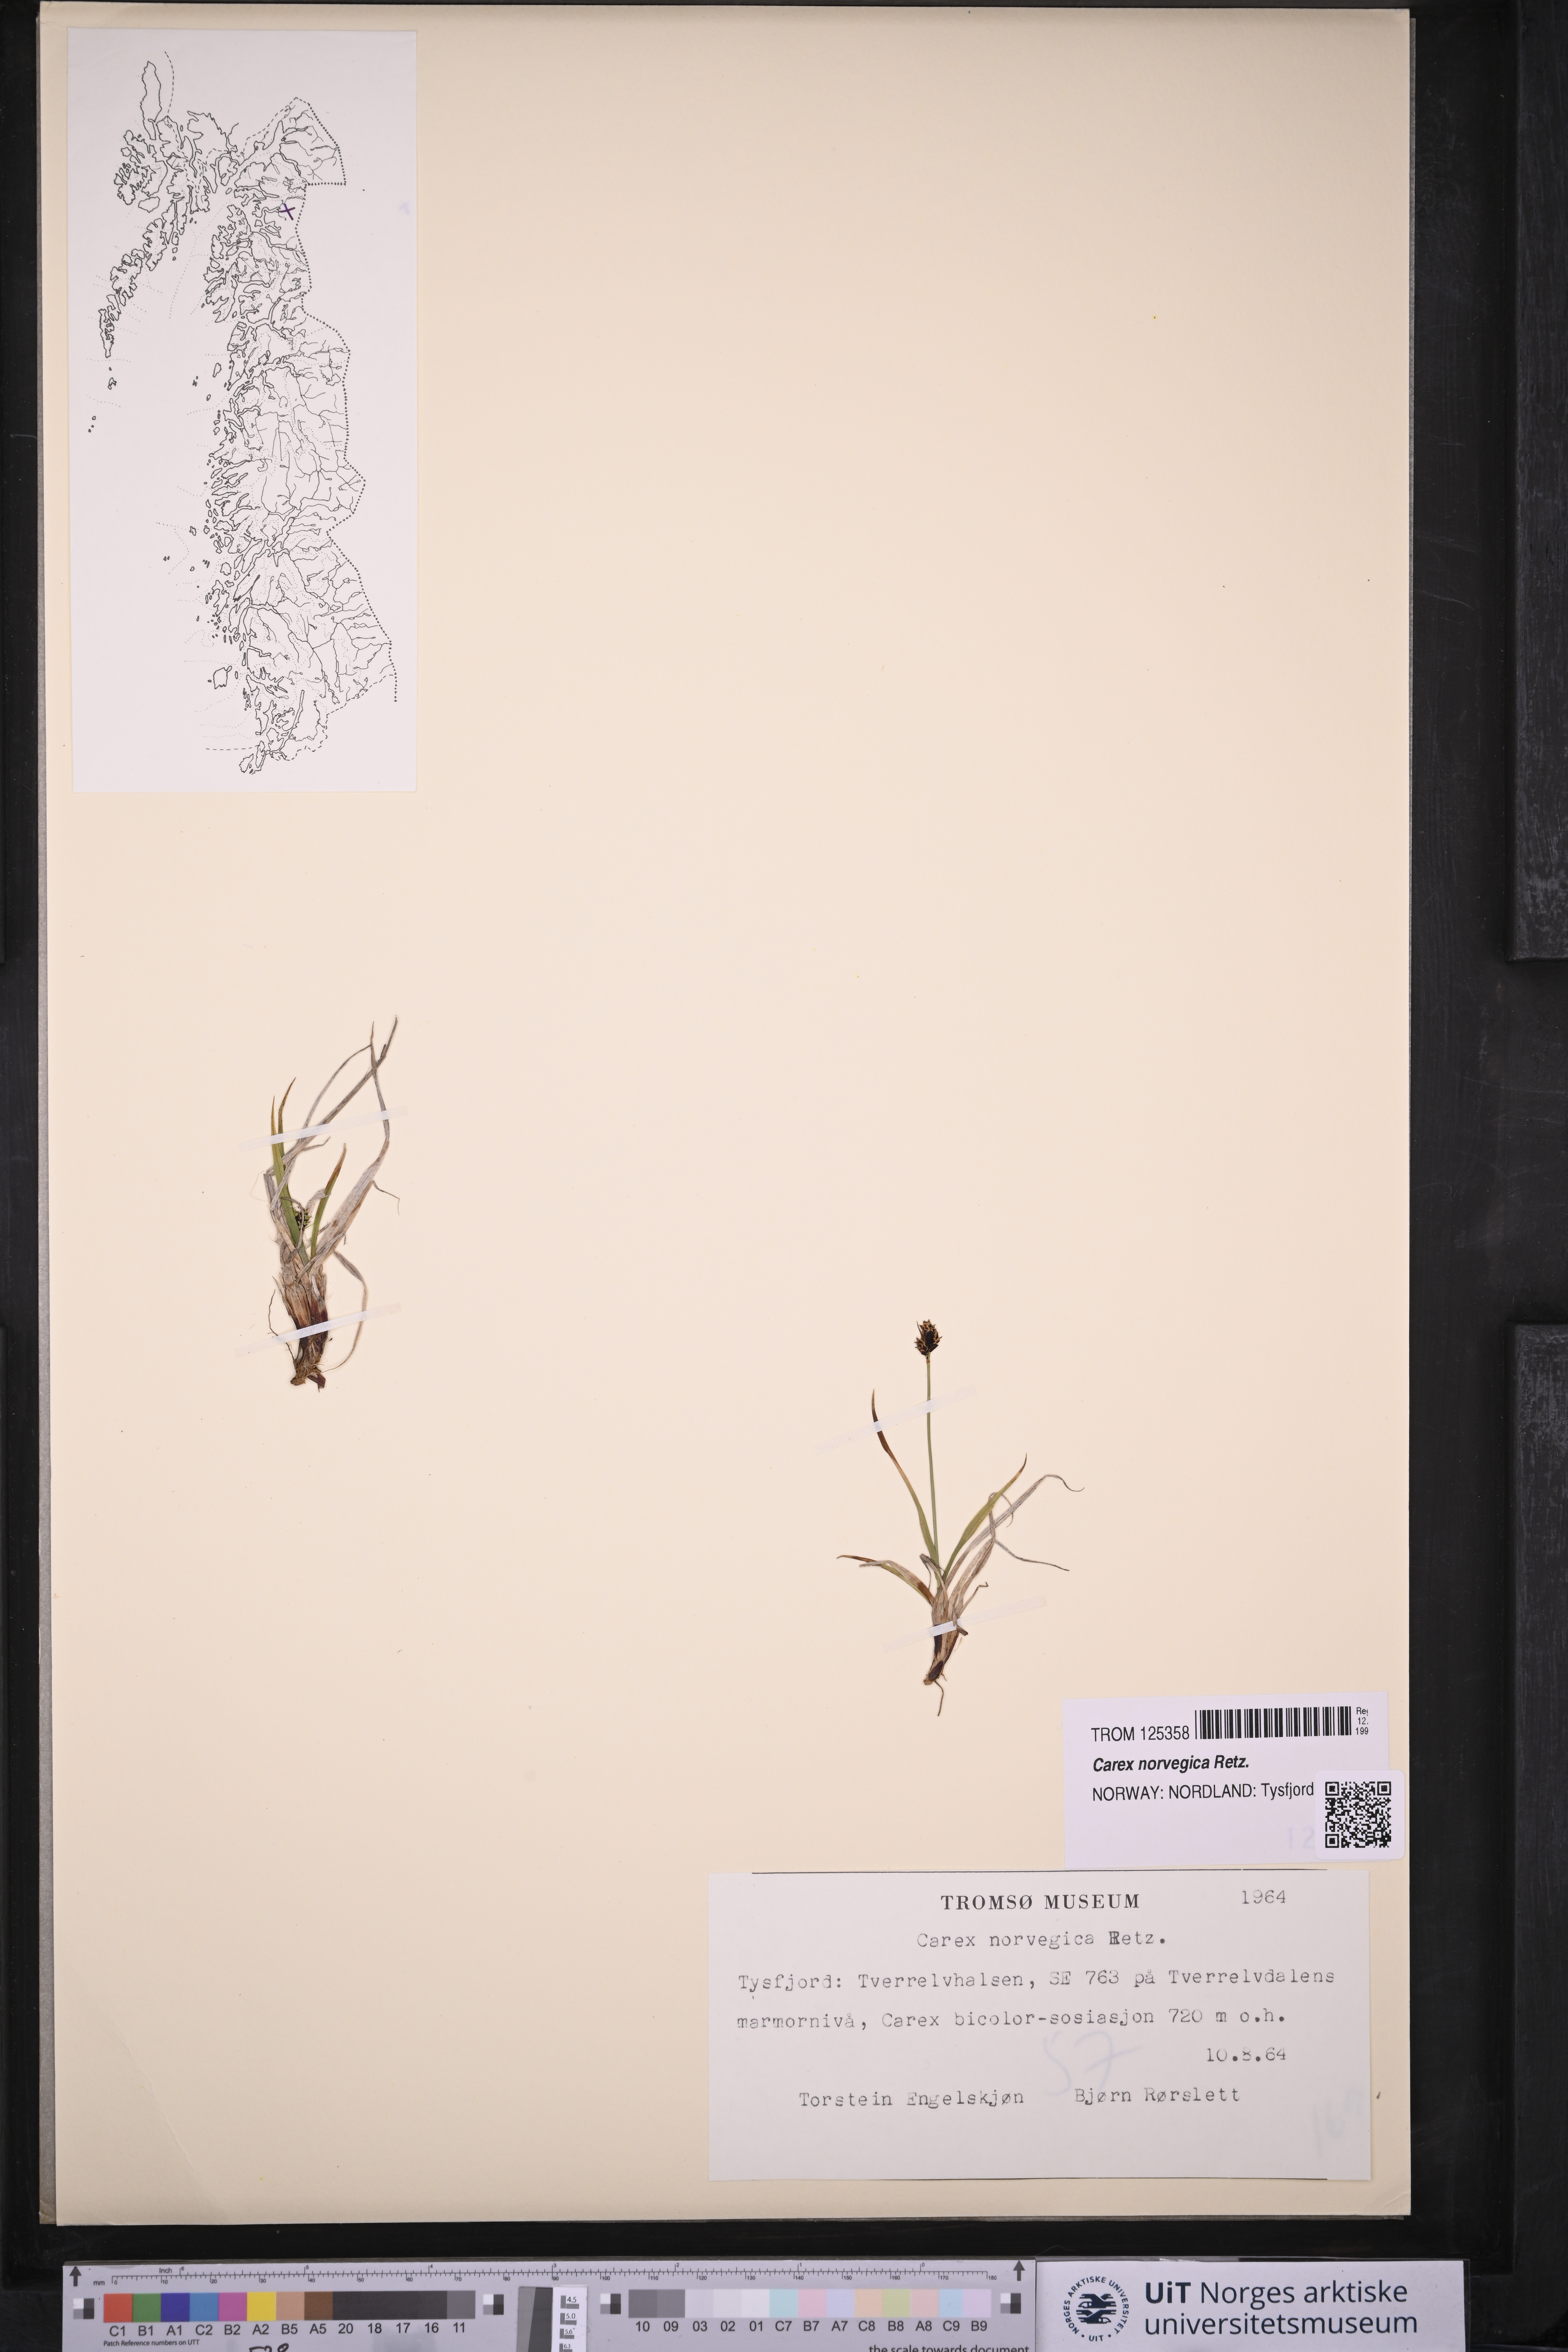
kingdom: Plantae
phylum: Tracheophyta
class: Liliopsida
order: Poales
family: Cyperaceae
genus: Carex
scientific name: Carex norvegica
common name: Close-headed alpine-sedge
